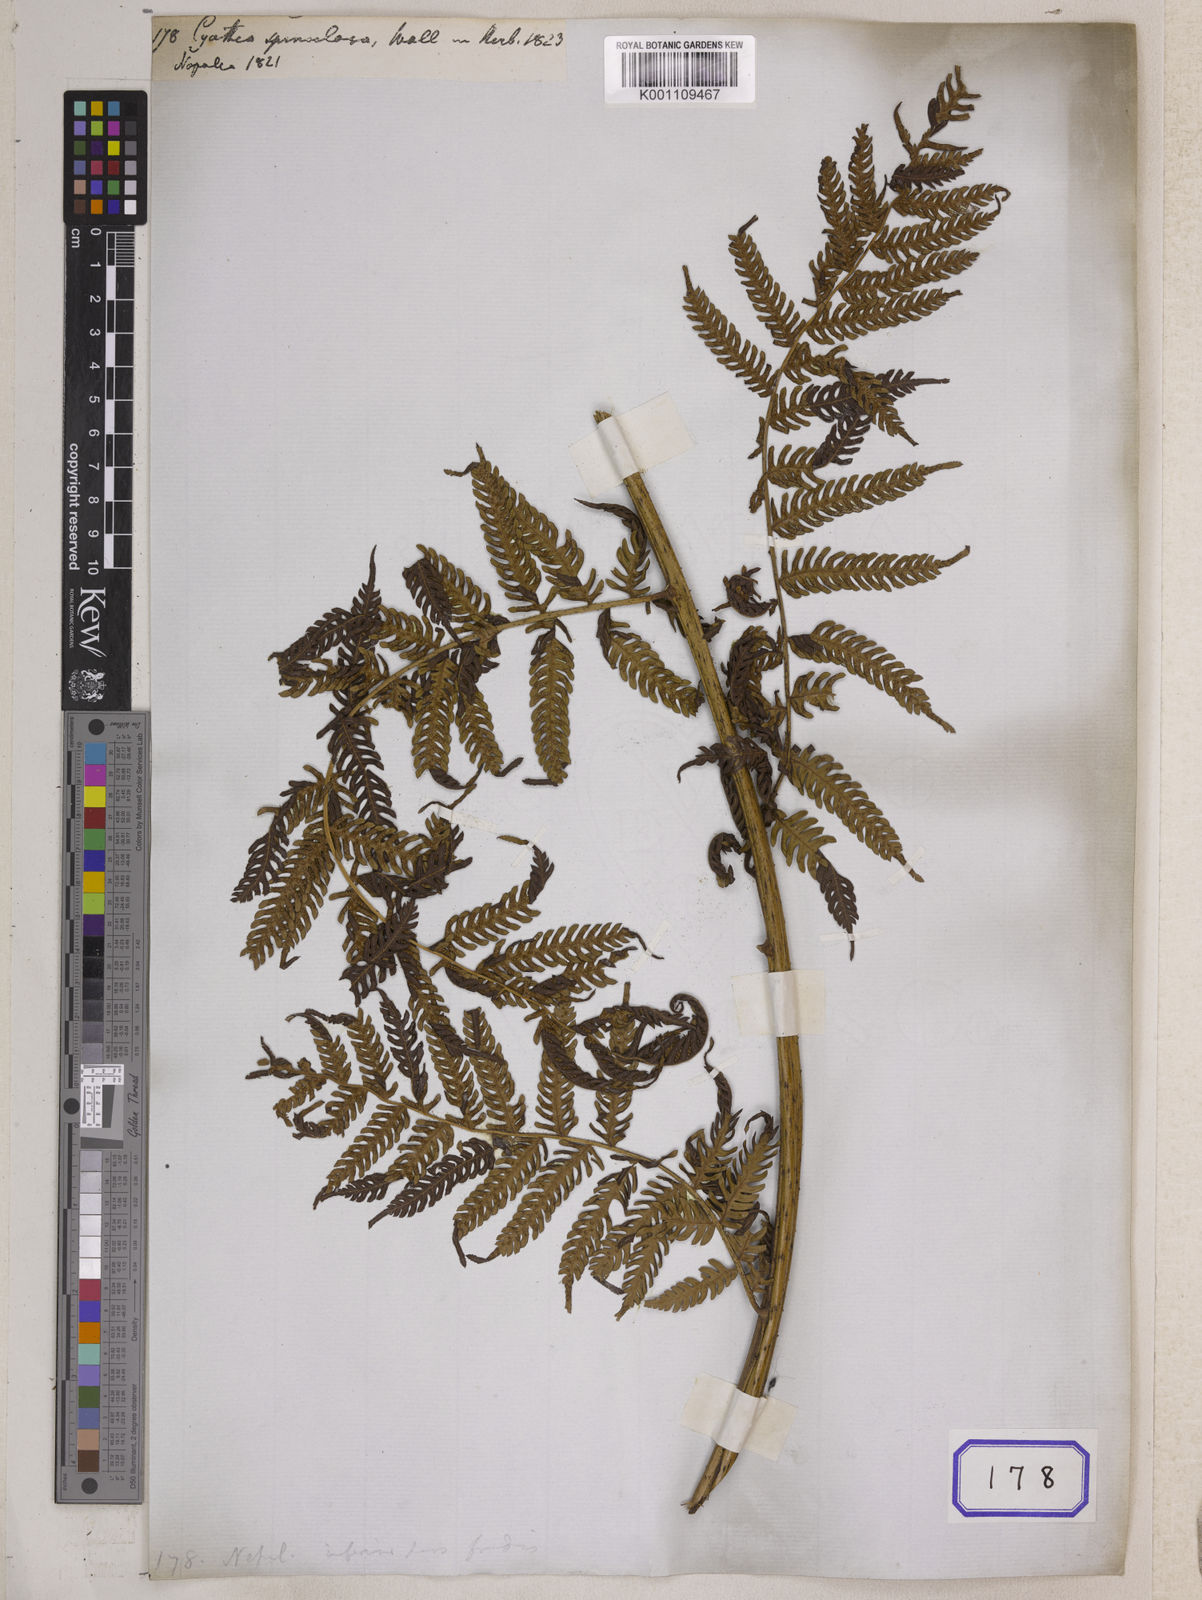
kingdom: Plantae
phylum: Tracheophyta
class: Polypodiopsida
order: Cyatheales
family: Cyatheaceae
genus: Cyathea
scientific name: Cyathea
